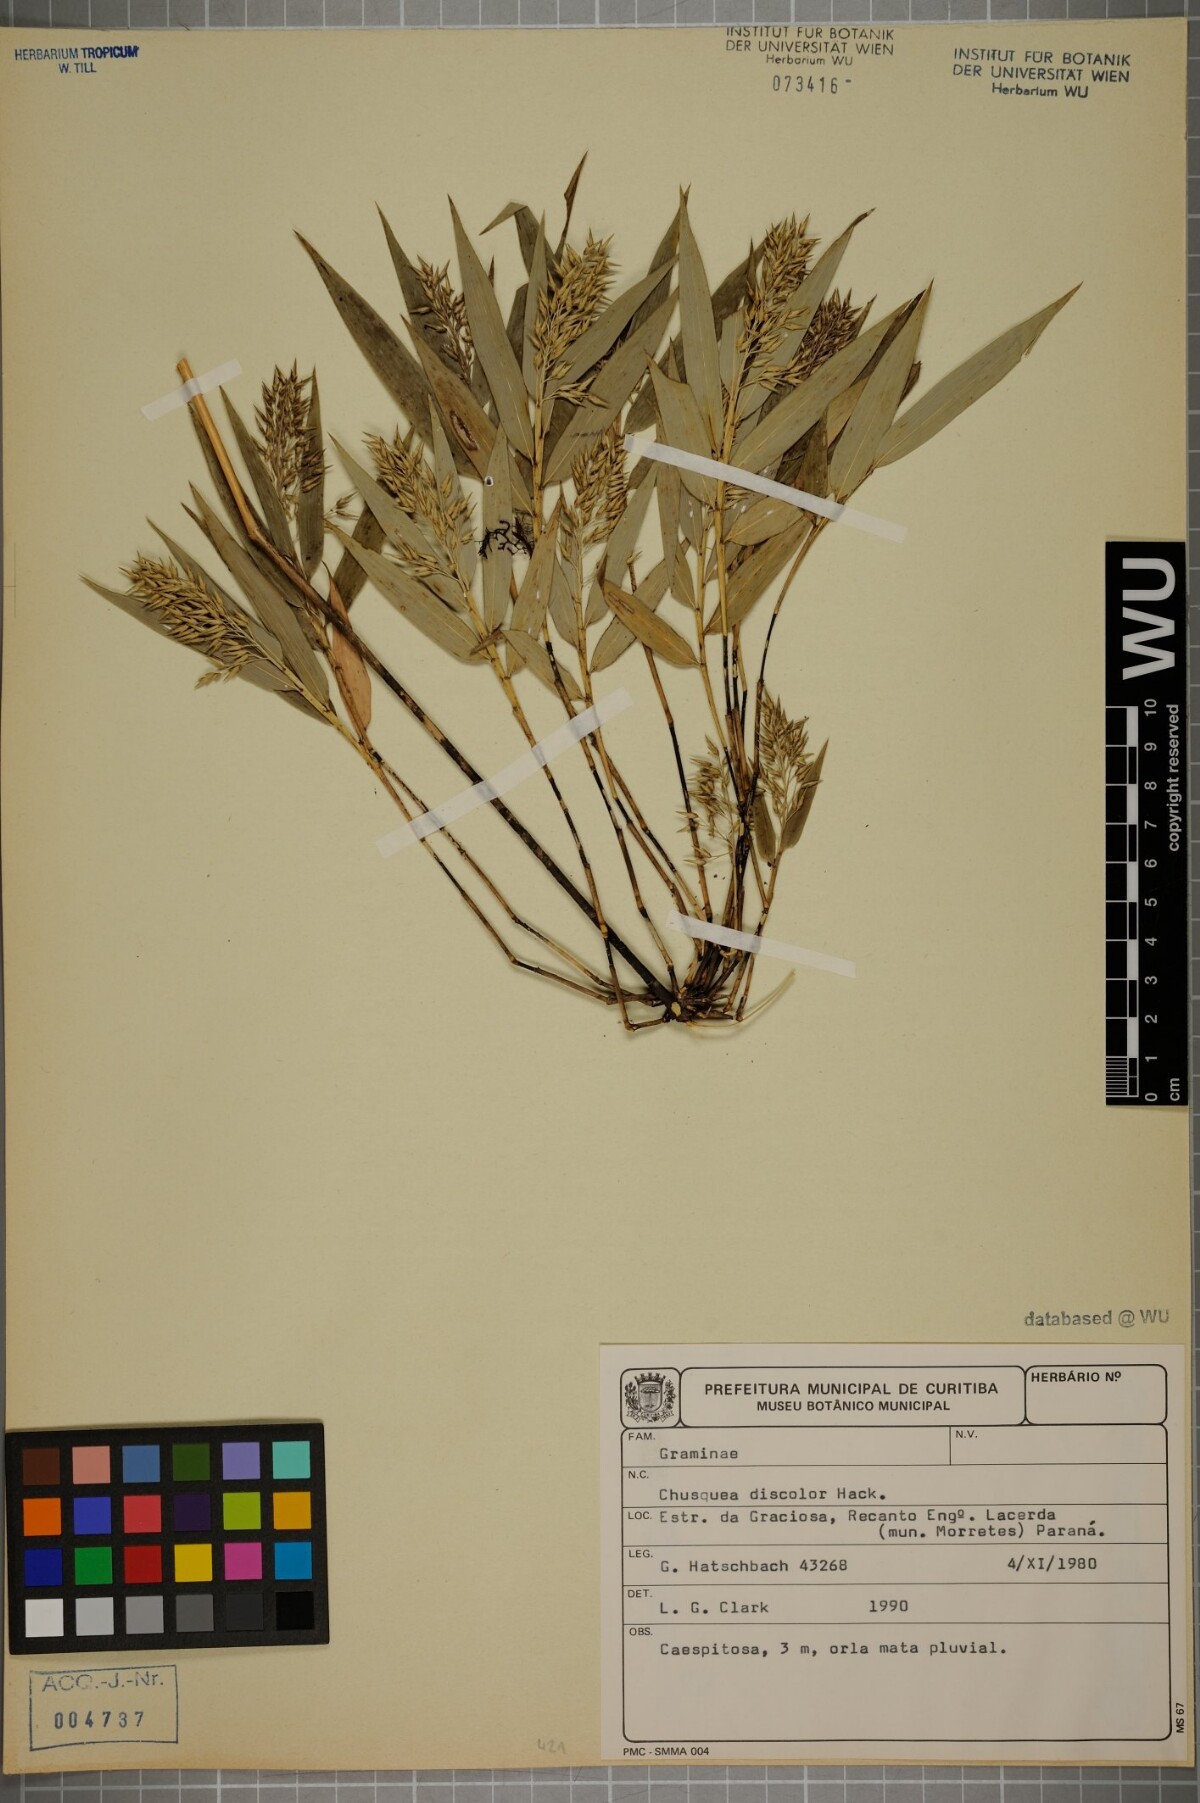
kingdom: Plantae
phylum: Tracheophyta
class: Liliopsida
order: Poales
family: Poaceae
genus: Chusquea
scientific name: Chusquea oligophylla
